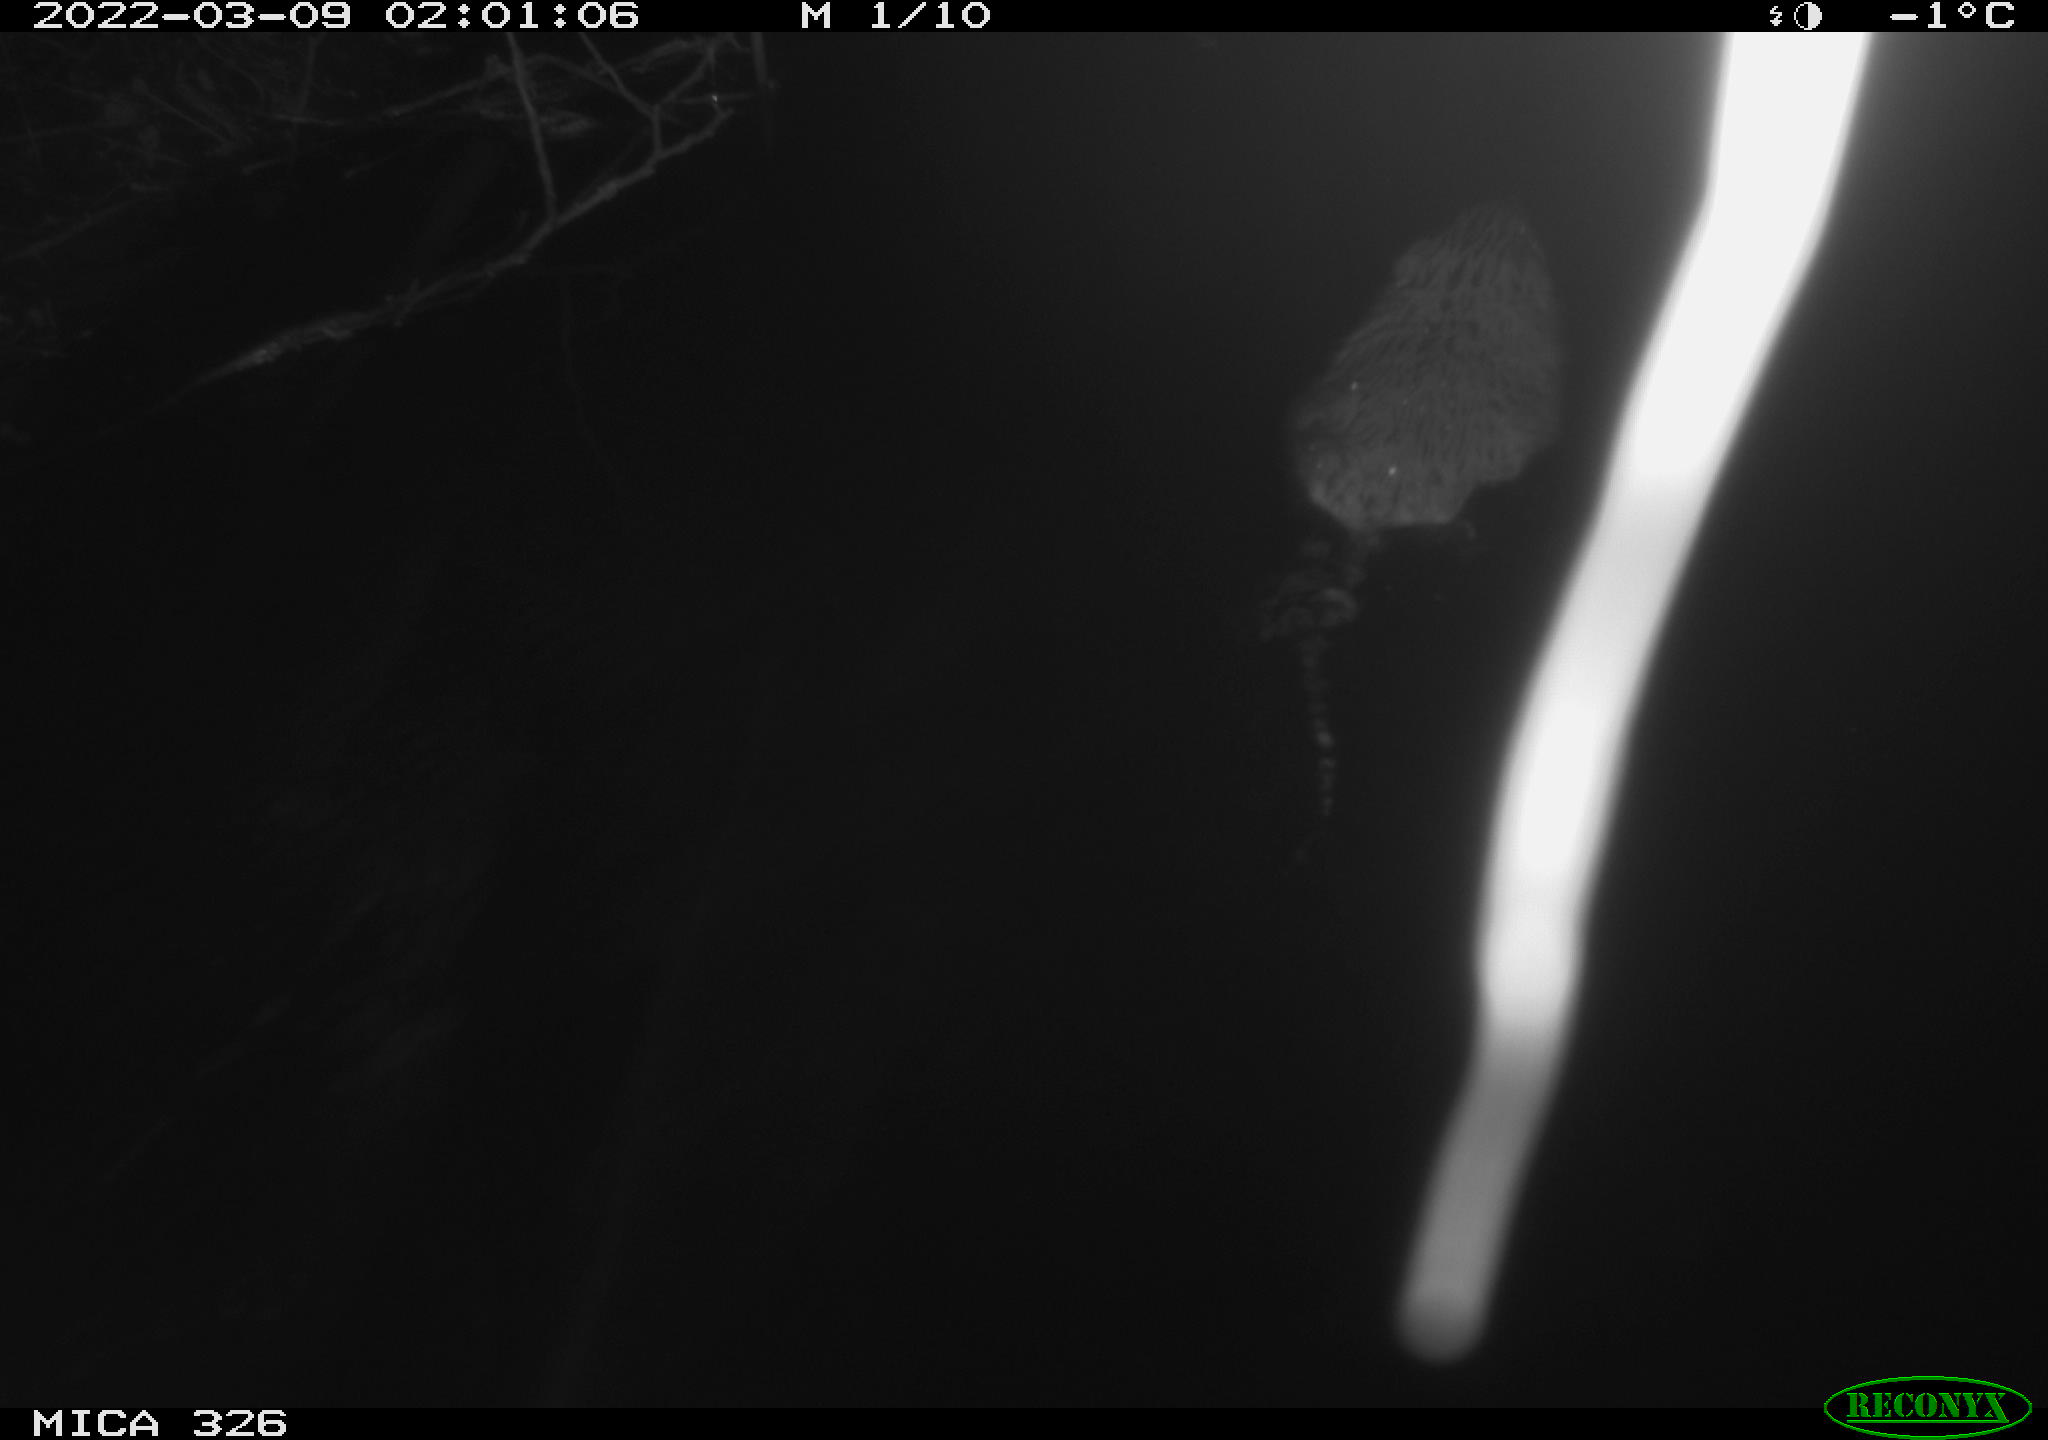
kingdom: Animalia
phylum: Chordata
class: Mammalia
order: Rodentia
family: Cricetidae
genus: Ondatra
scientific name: Ondatra zibethicus
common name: Muskrat
